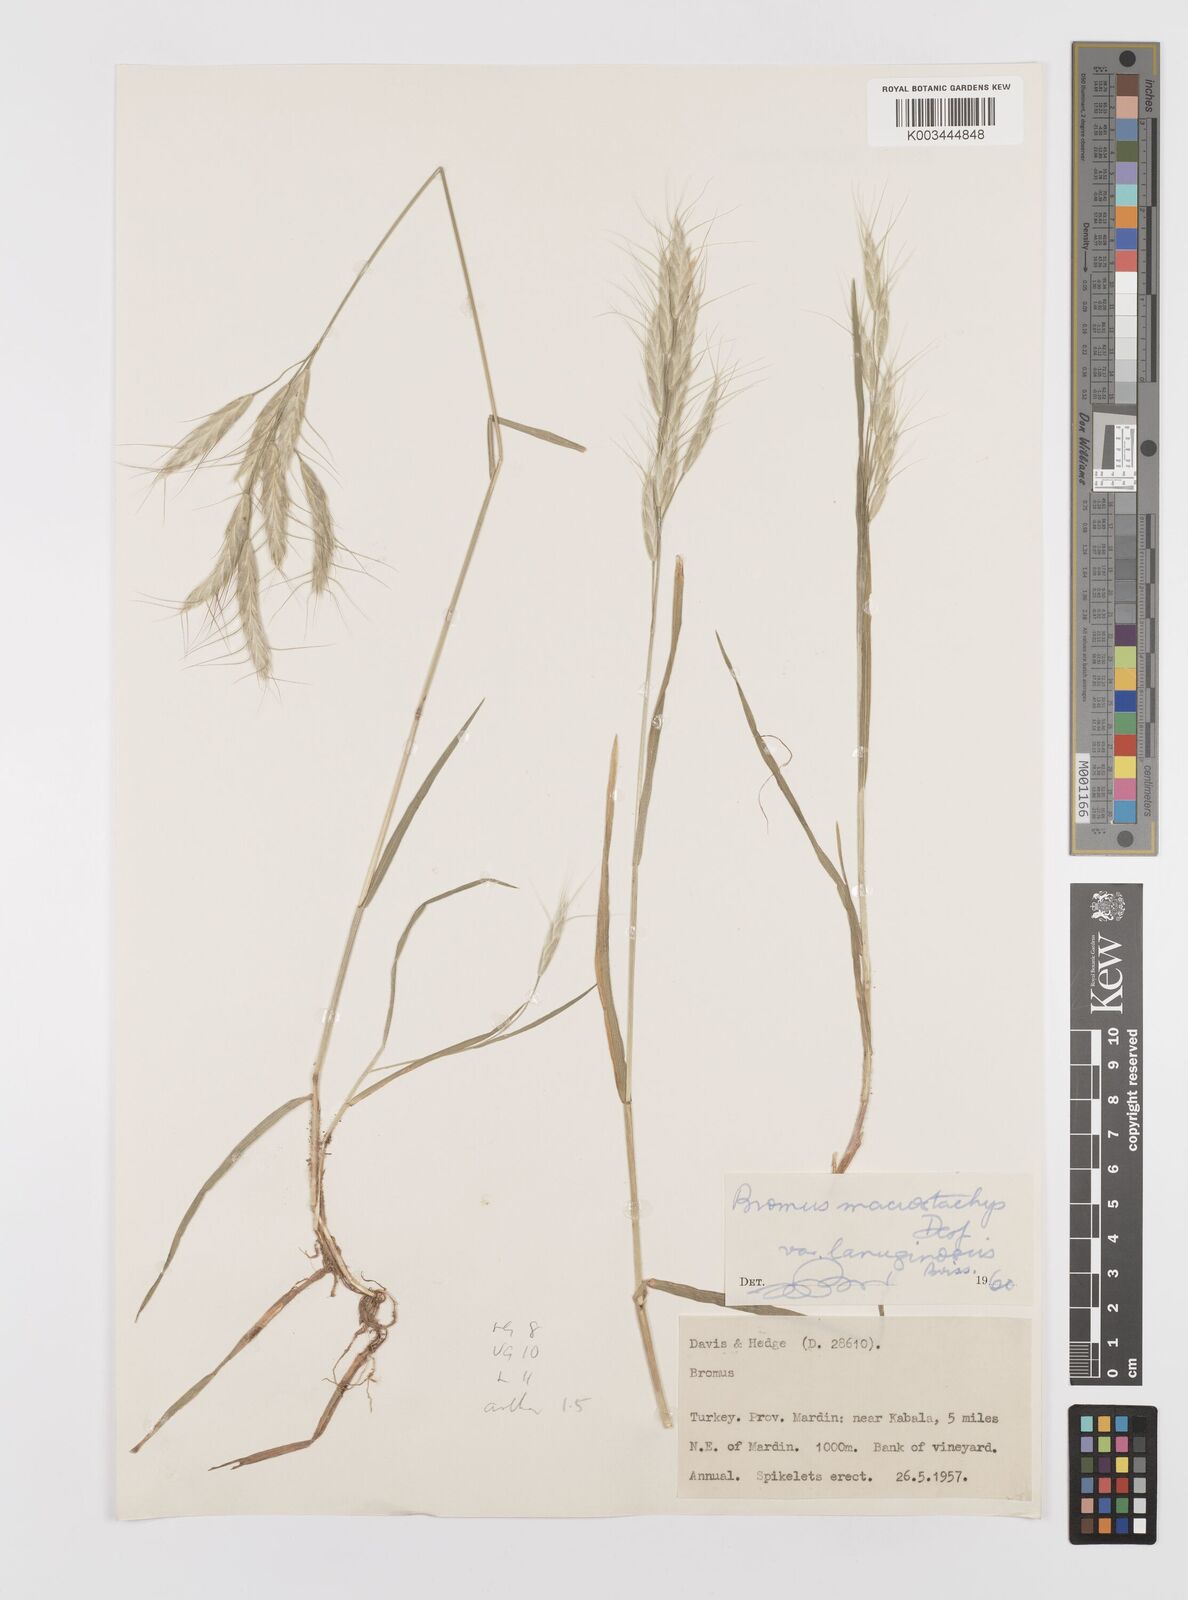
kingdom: Plantae
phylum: Tracheophyta
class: Liliopsida
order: Poales
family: Poaceae
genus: Bromus
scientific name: Bromus lanceolatus
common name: Mediterranean brome
